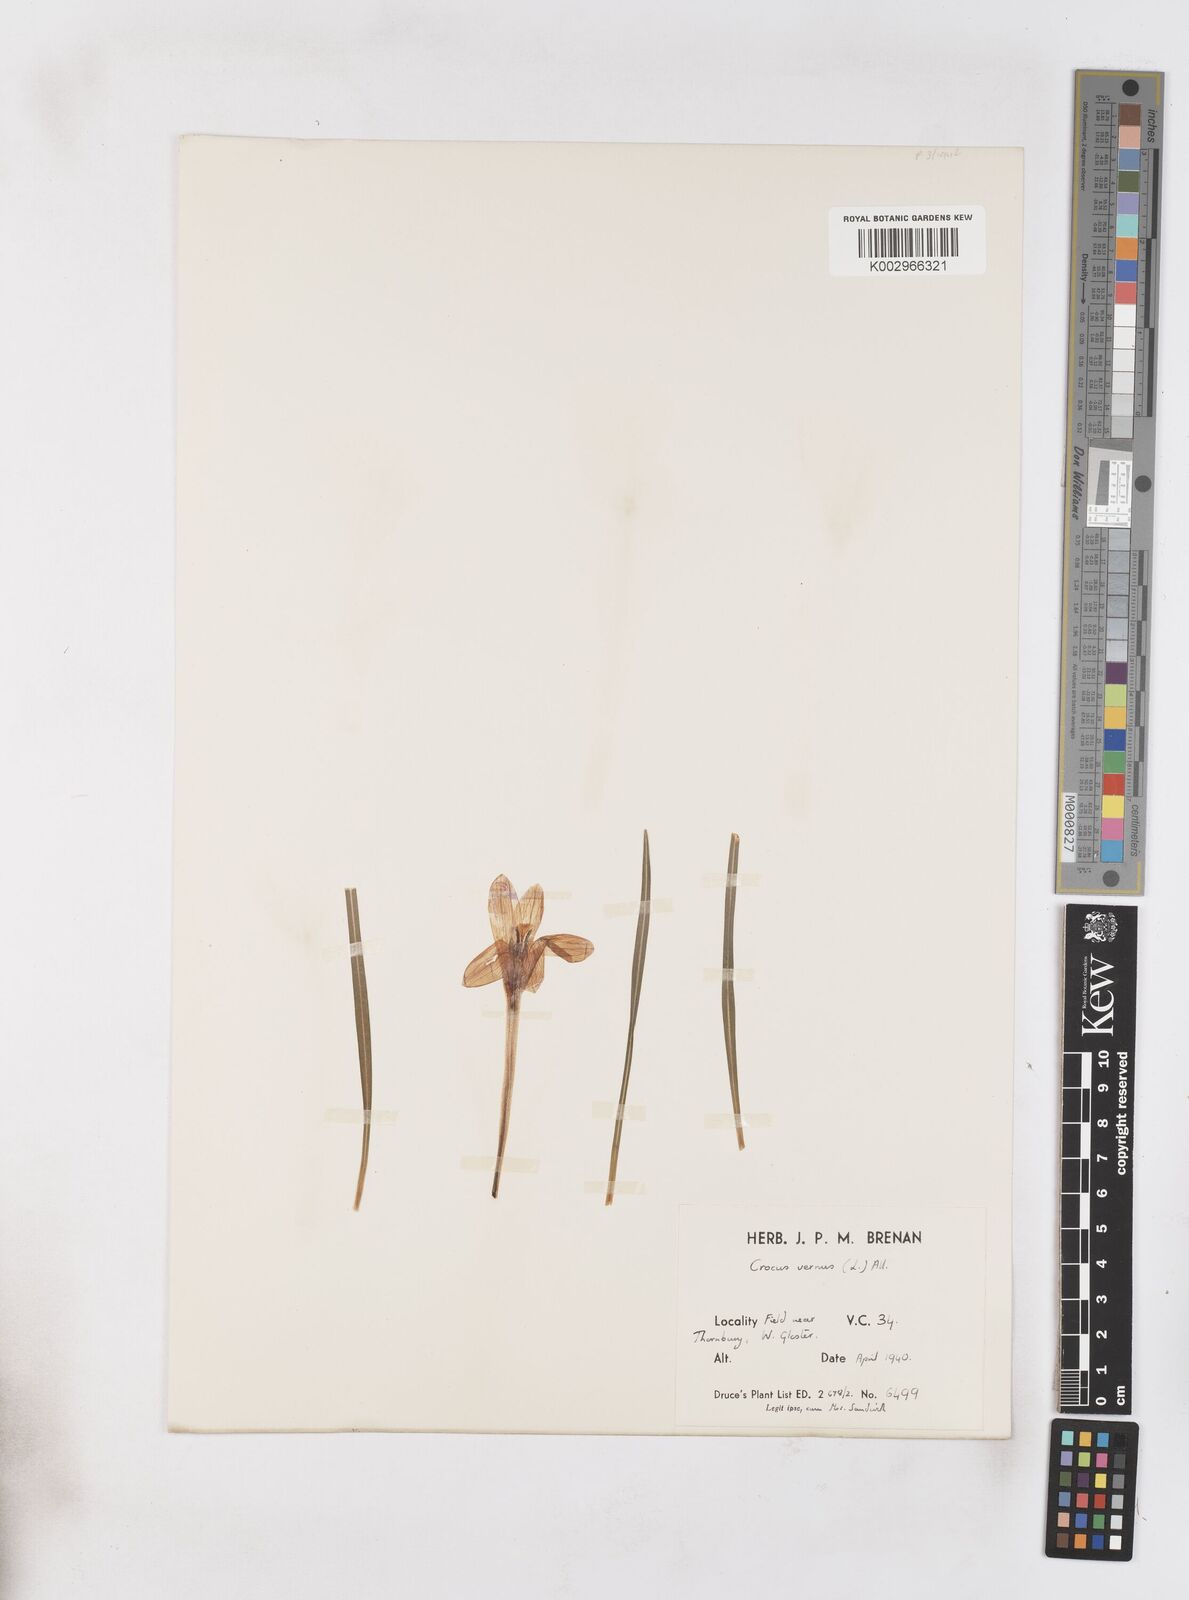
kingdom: Plantae
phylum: Tracheophyta
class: Liliopsida
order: Asparagales
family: Iridaceae
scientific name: Iridaceae
